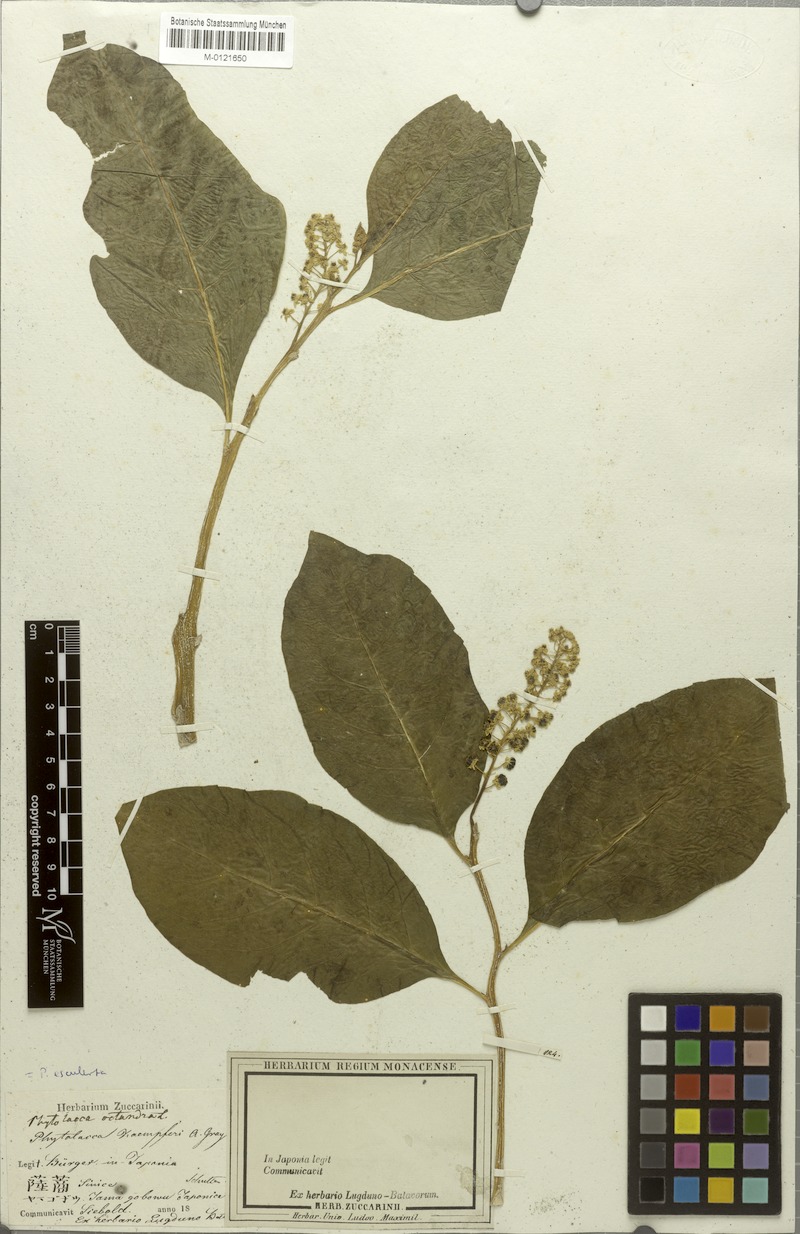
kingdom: Plantae
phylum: Tracheophyta
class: Magnoliopsida
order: Caryophyllales
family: Phytolaccaceae
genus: Phytolacca
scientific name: Phytolacca acinosa
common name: Indian pokeweed
